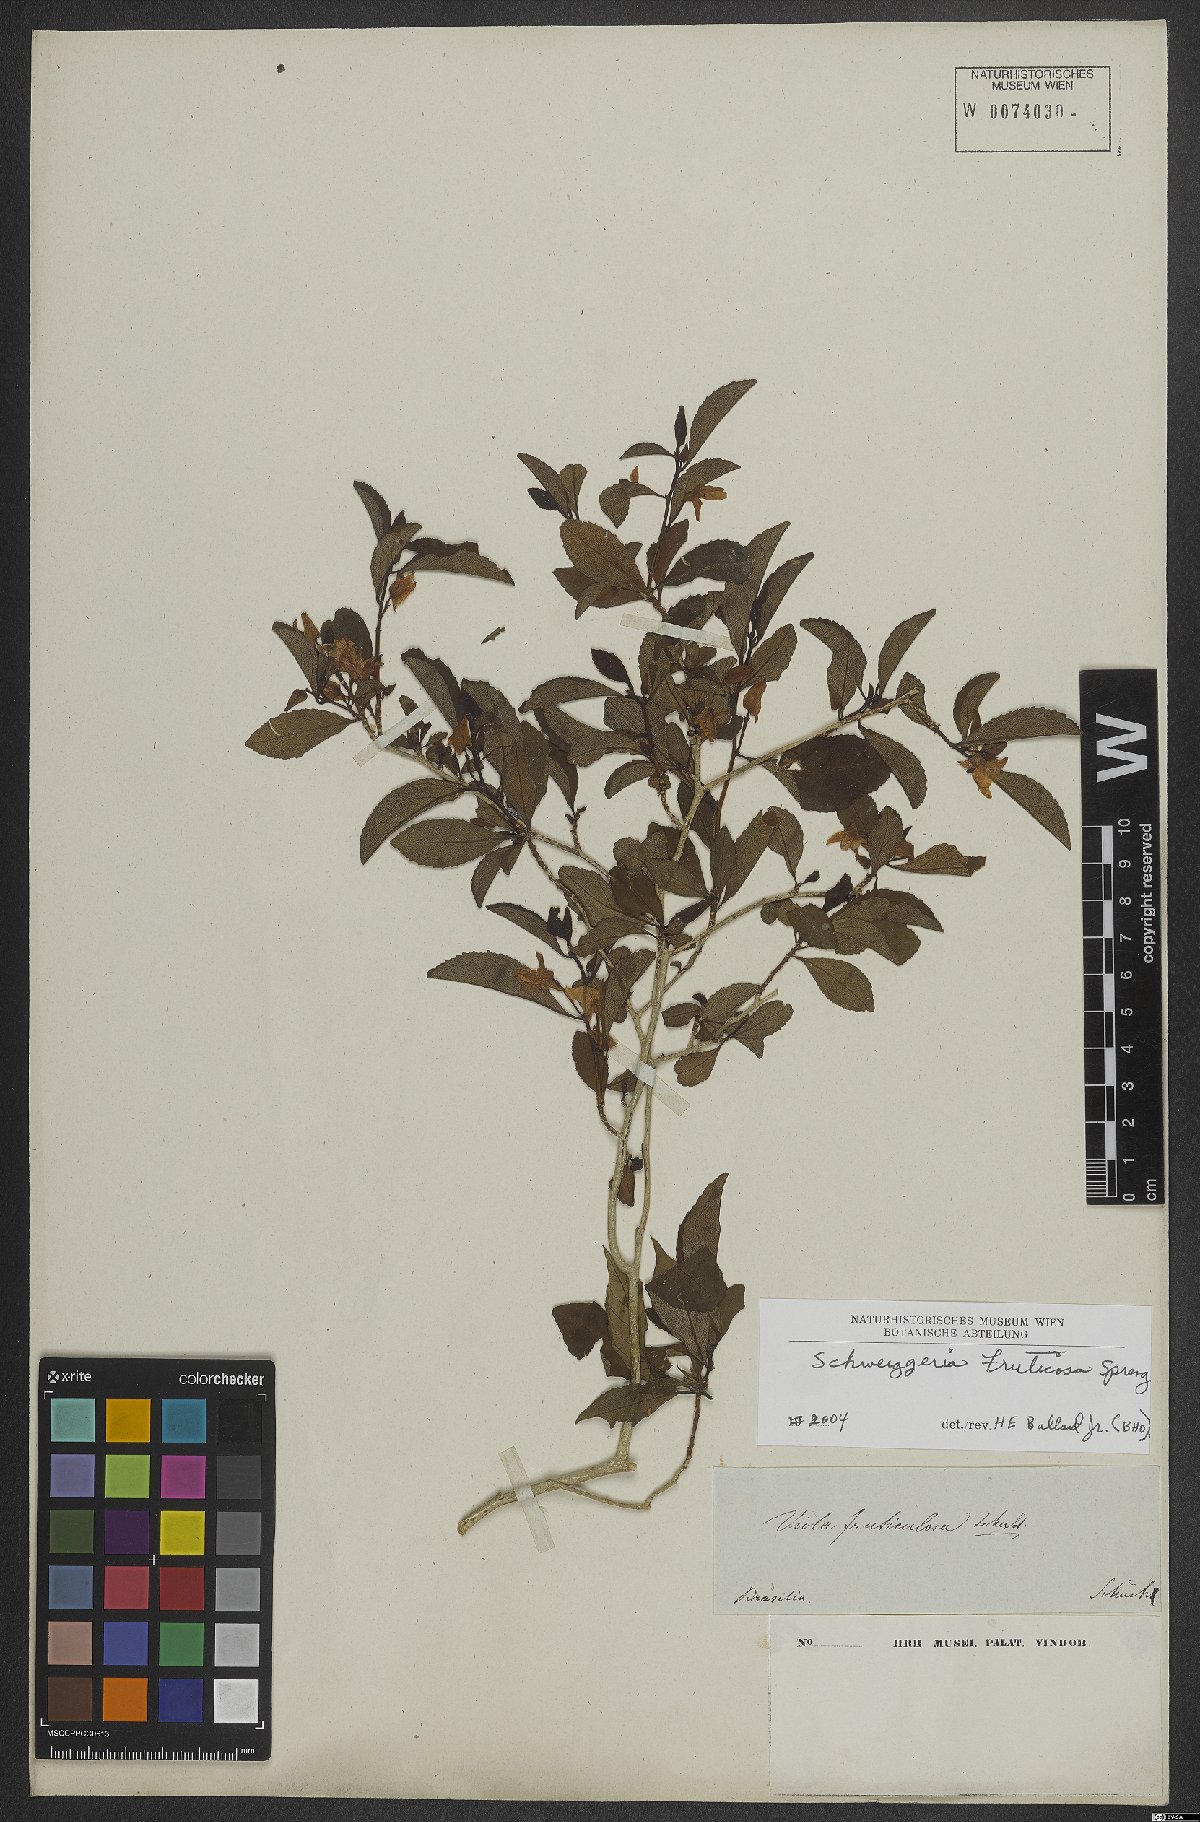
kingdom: Plantae
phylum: Tracheophyta
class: Magnoliopsida
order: Malpighiales
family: Violaceae
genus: Schweiggeria
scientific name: Schweiggeria fruticosa
